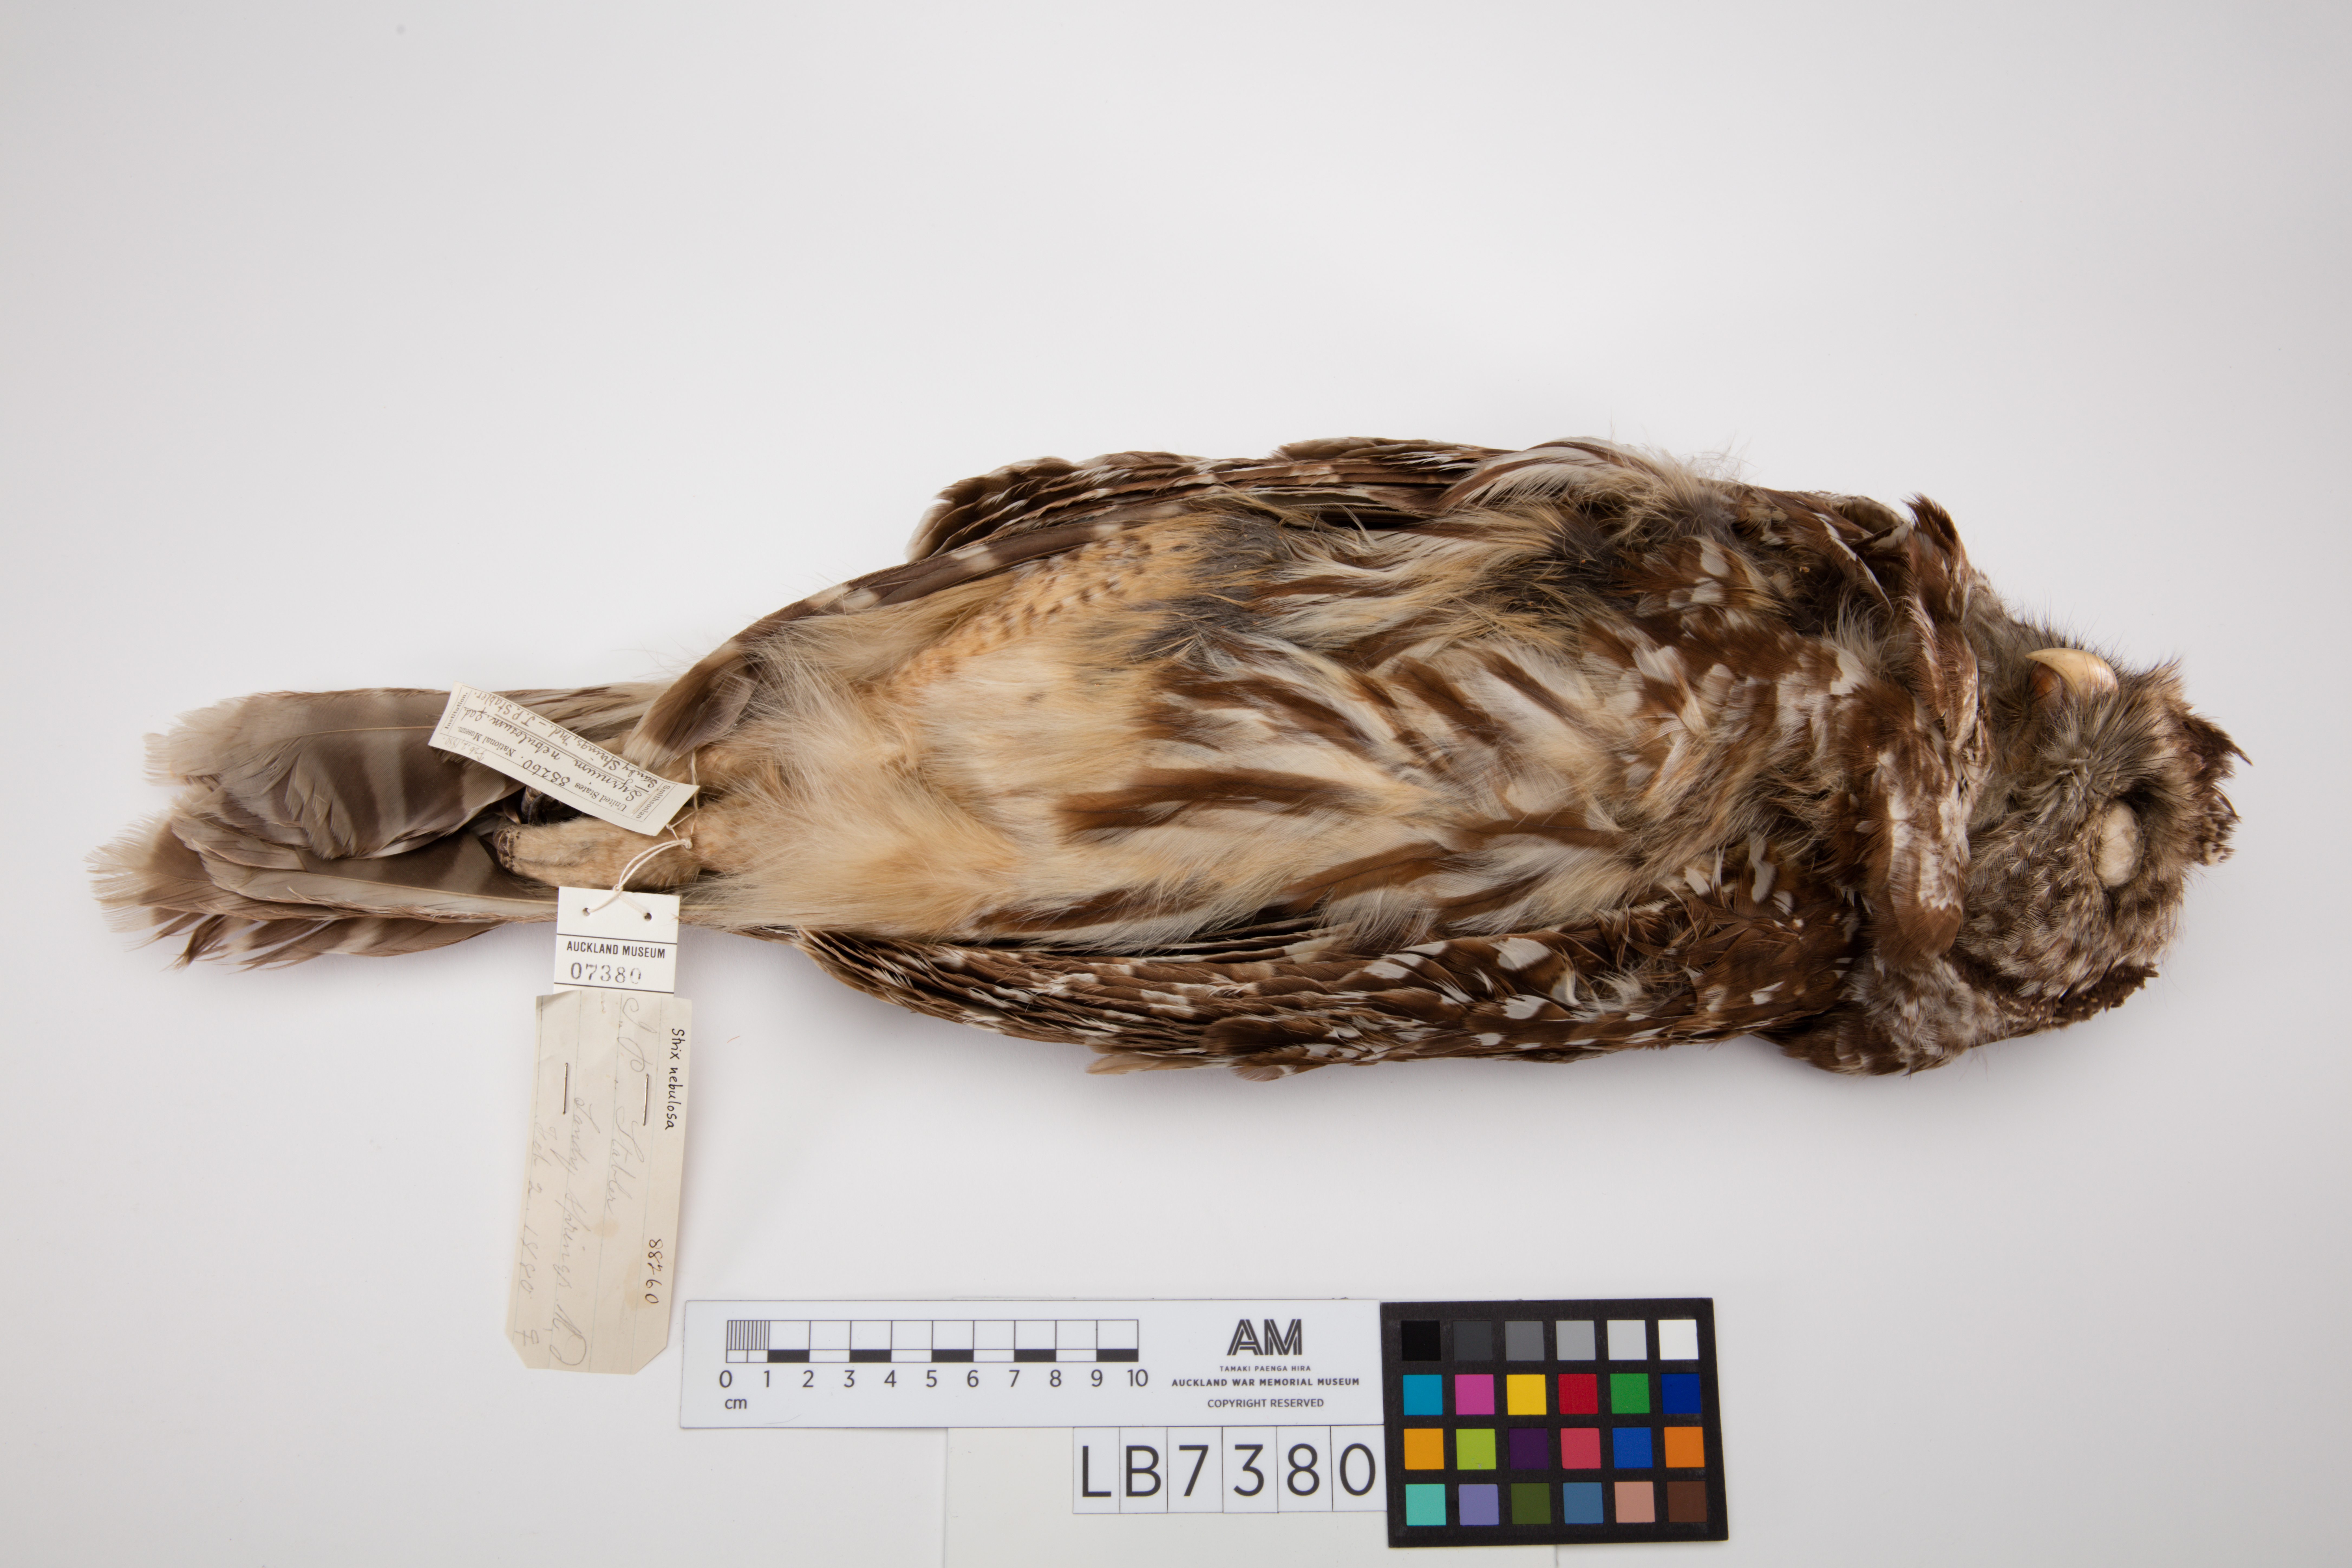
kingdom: Animalia
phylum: Chordata
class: Aves
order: Strigiformes
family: Strigidae
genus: Strix
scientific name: Strix nebulosa
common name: Great grey owl
